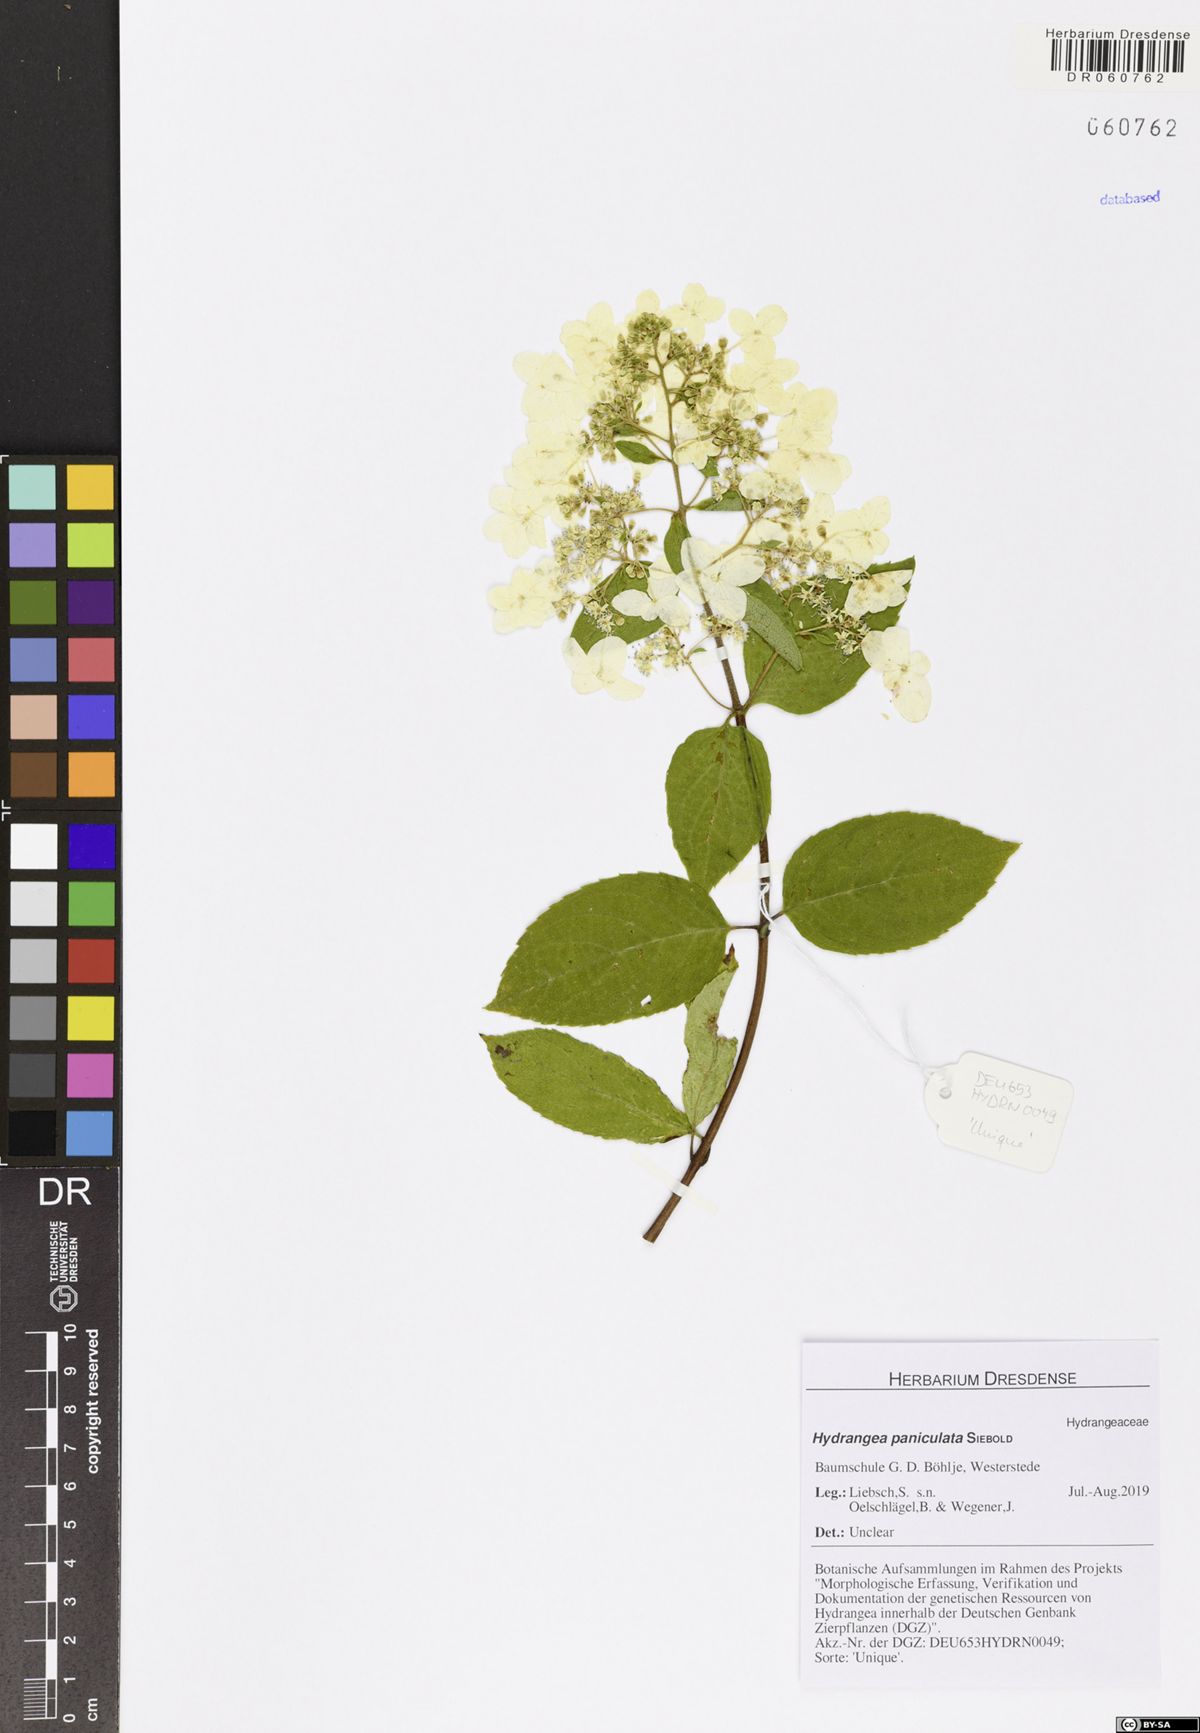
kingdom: Plantae
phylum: Tracheophyta
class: Magnoliopsida
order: Cornales
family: Hydrangeaceae
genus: Hydrangea
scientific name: Hydrangea paniculata
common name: Panicled hydrangea
